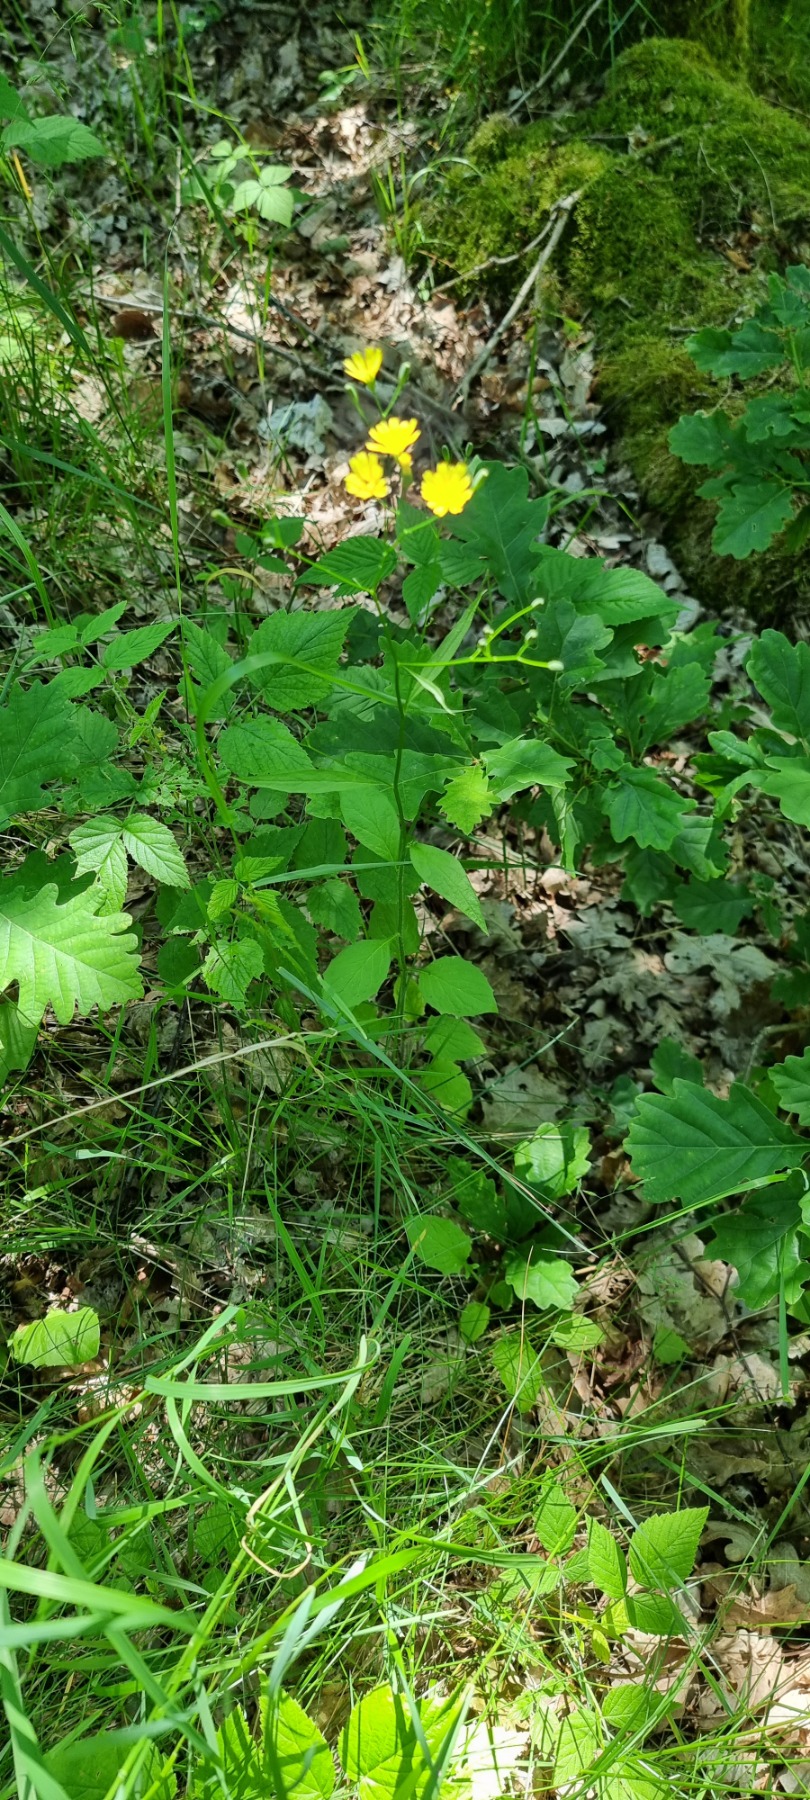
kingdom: Plantae
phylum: Tracheophyta
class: Magnoliopsida
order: Asterales
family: Asteraceae
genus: Lapsana
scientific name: Lapsana communis
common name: Haremad
